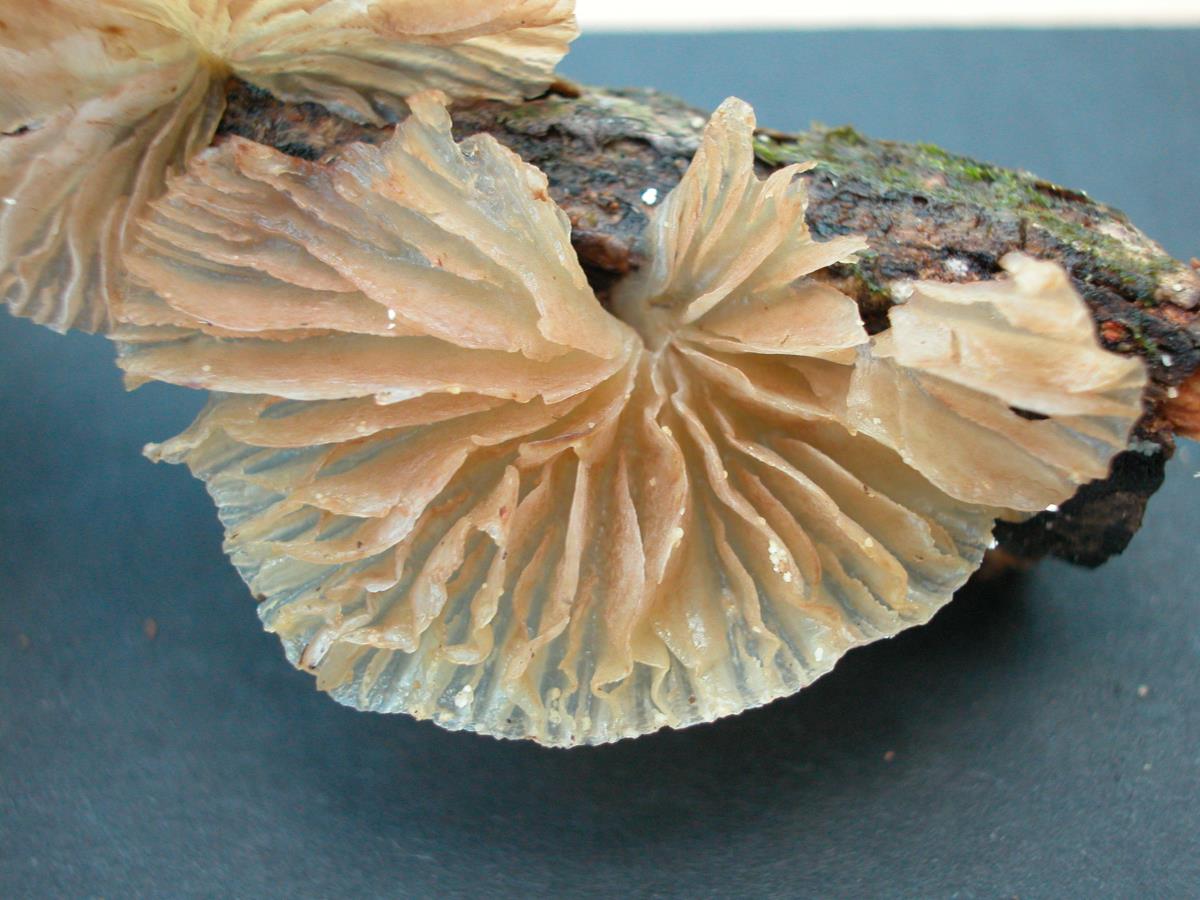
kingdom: Fungi
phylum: Basidiomycota
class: Agaricomycetes
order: Agaricales
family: Pleurotaceae
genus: Pleurotus
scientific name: Pleurotus djamor
